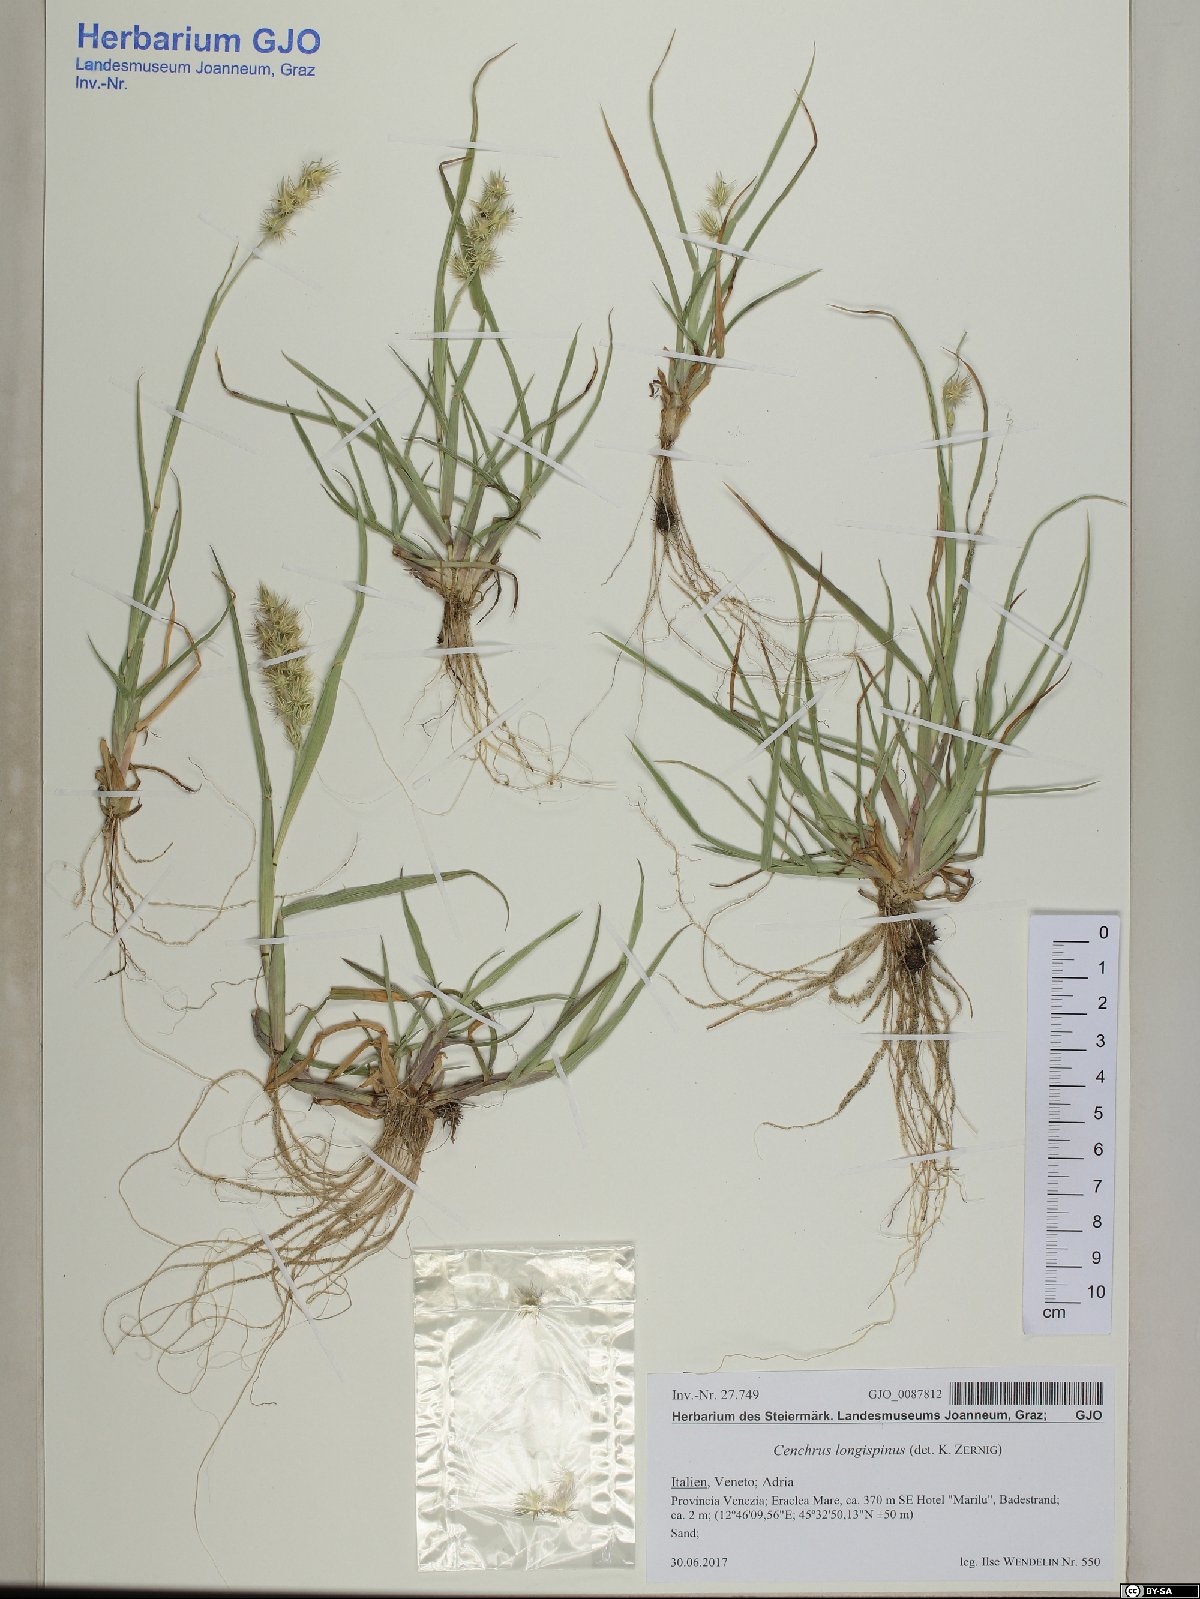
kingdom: Plantae
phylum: Tracheophyta
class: Liliopsida
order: Poales
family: Poaceae
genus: Cenchrus
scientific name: Cenchrus longispinus
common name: Mat sandbur
